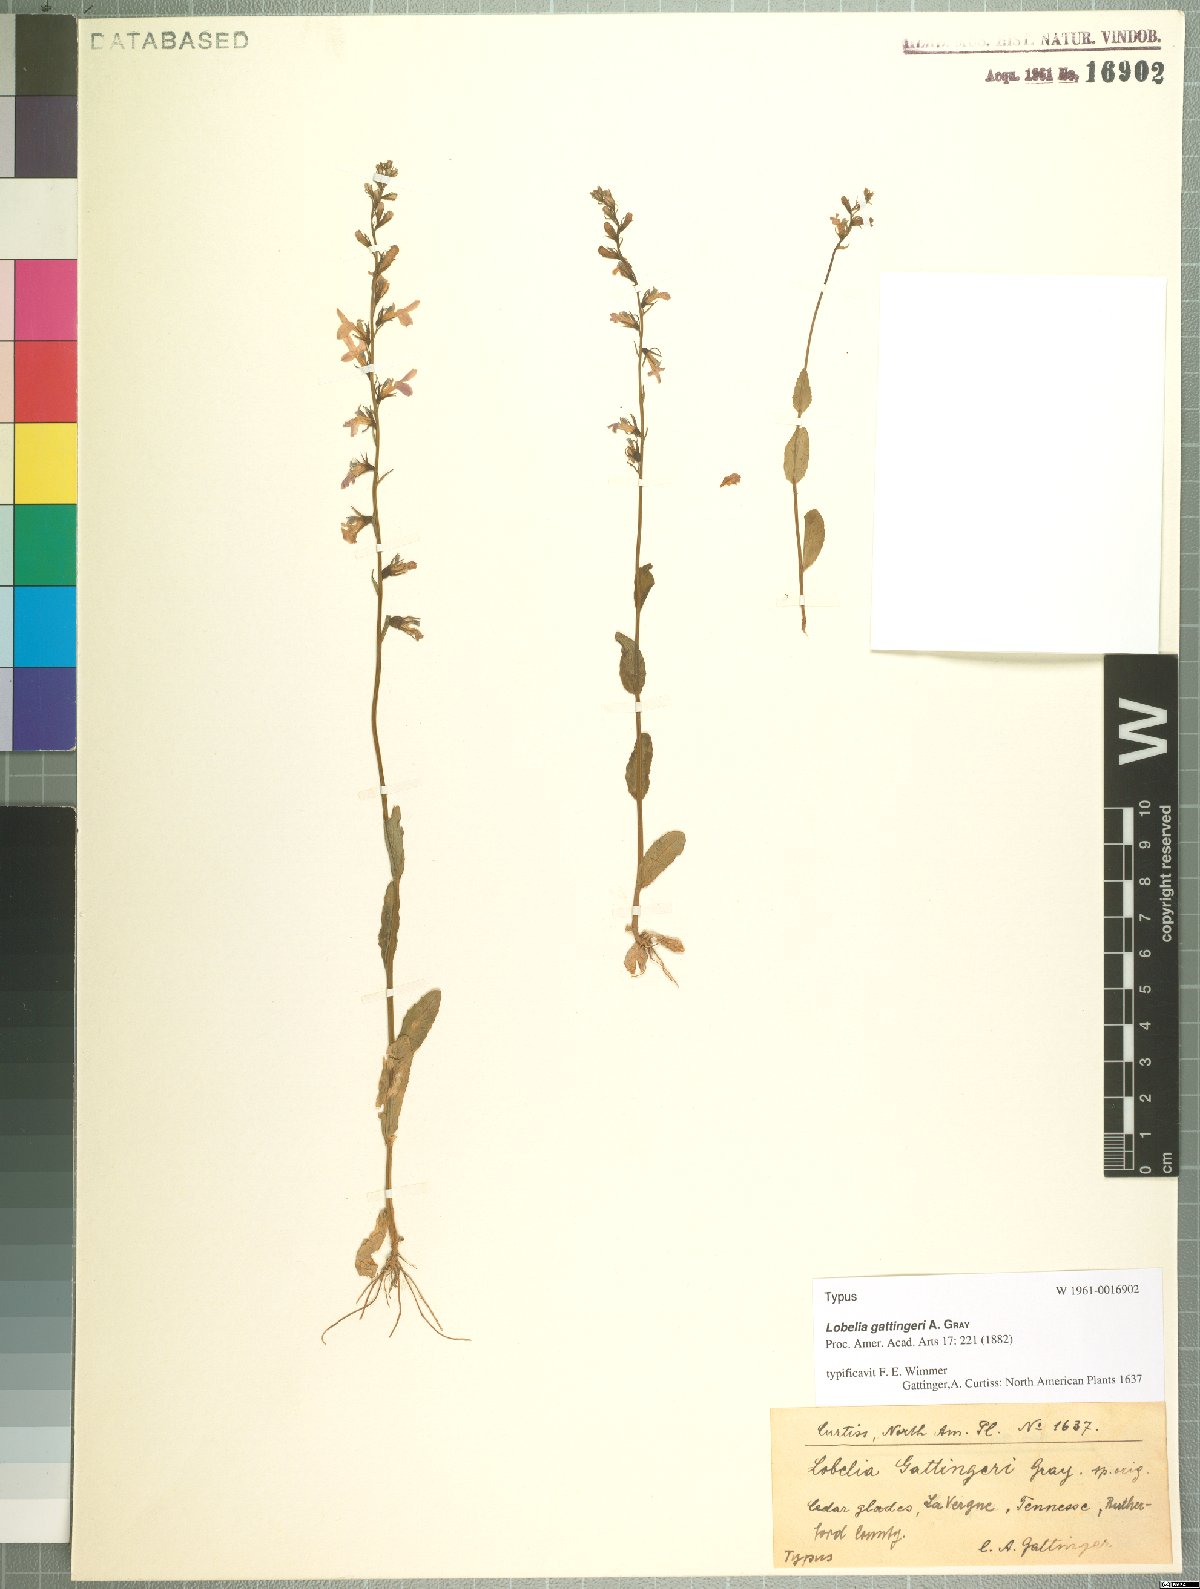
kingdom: Plantae
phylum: Tracheophyta
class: Magnoliopsida
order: Asterales
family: Campanulaceae
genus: Lobelia
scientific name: Lobelia gattingeri
